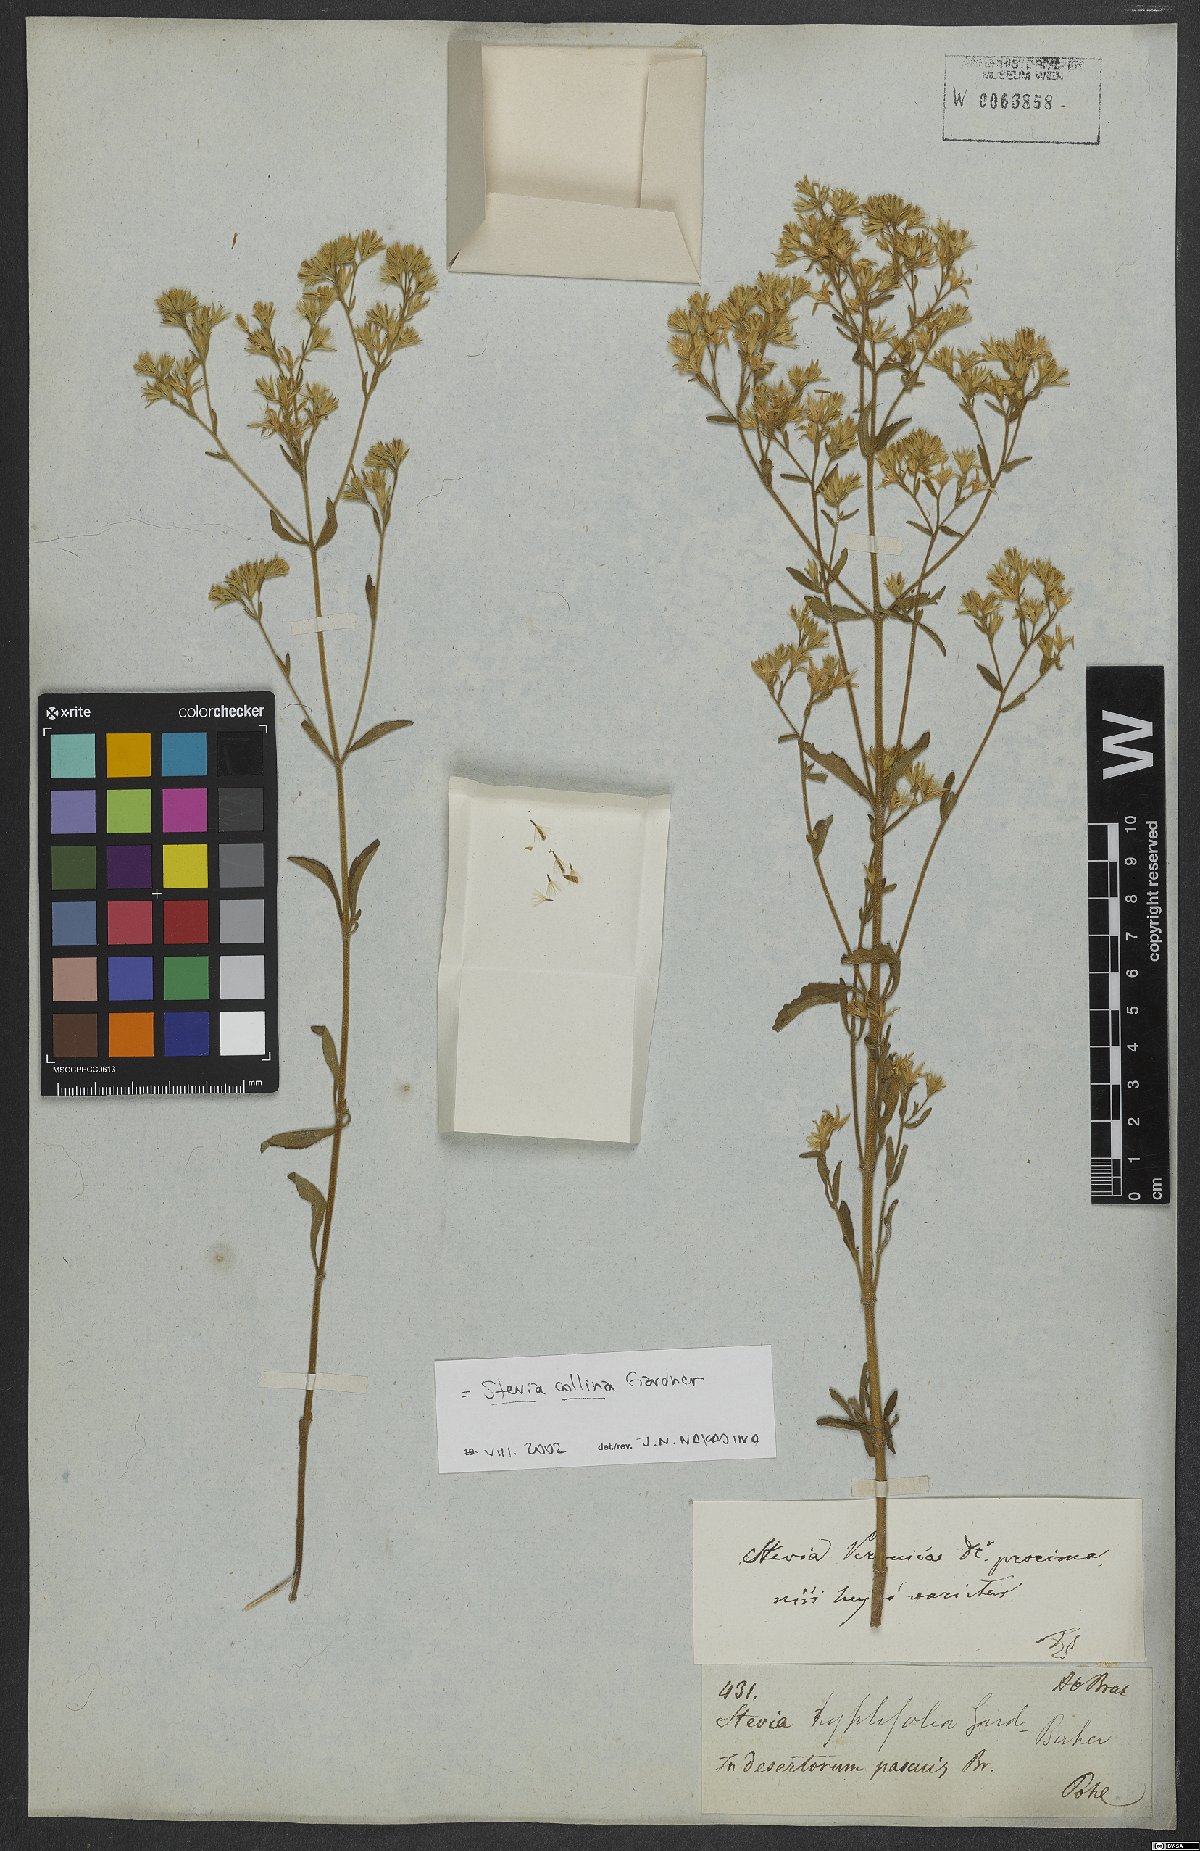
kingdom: Plantae
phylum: Tracheophyta
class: Magnoliopsida
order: Asterales
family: Asteraceae
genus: Stevia
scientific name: Stevia collina
